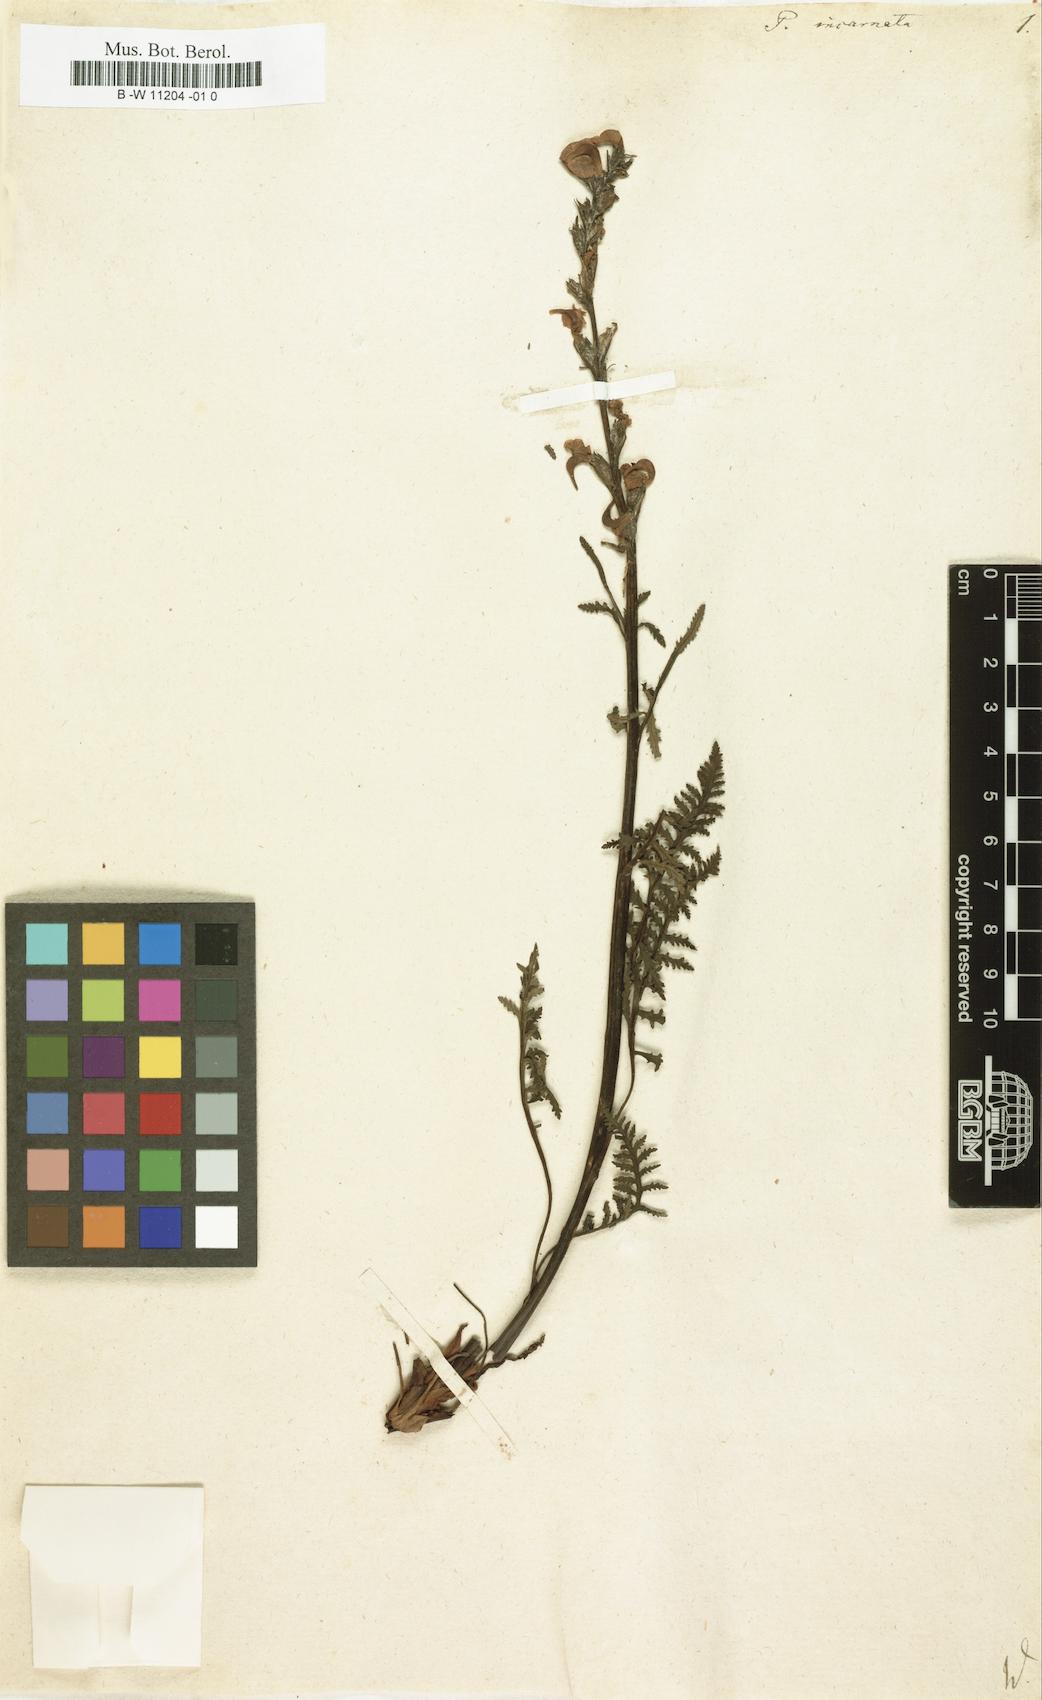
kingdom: Plantae
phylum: Tracheophyta
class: Magnoliopsida
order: Lamiales
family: Orobanchaceae
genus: Pedicularis
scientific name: Pedicularis incarnata
